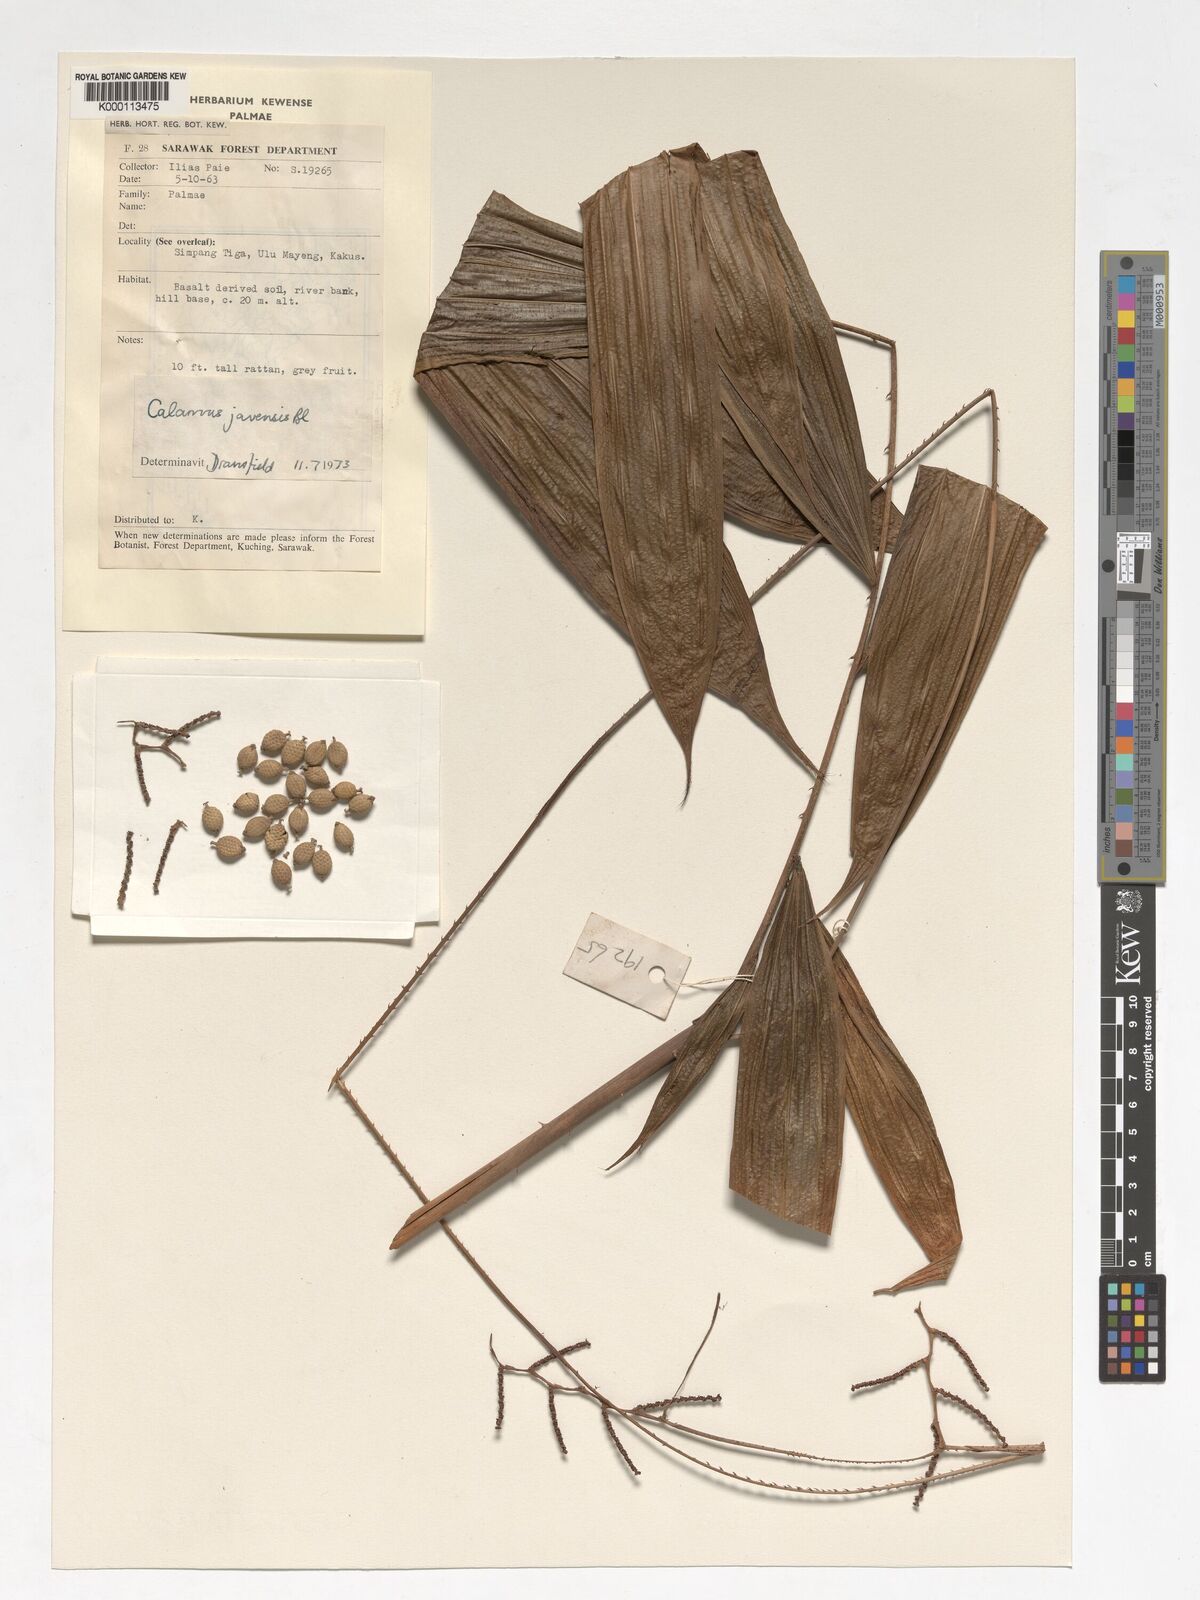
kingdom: Plantae
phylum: Tracheophyta
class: Liliopsida
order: Arecales
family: Arecaceae
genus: Calamus
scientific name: Calamus javensis
